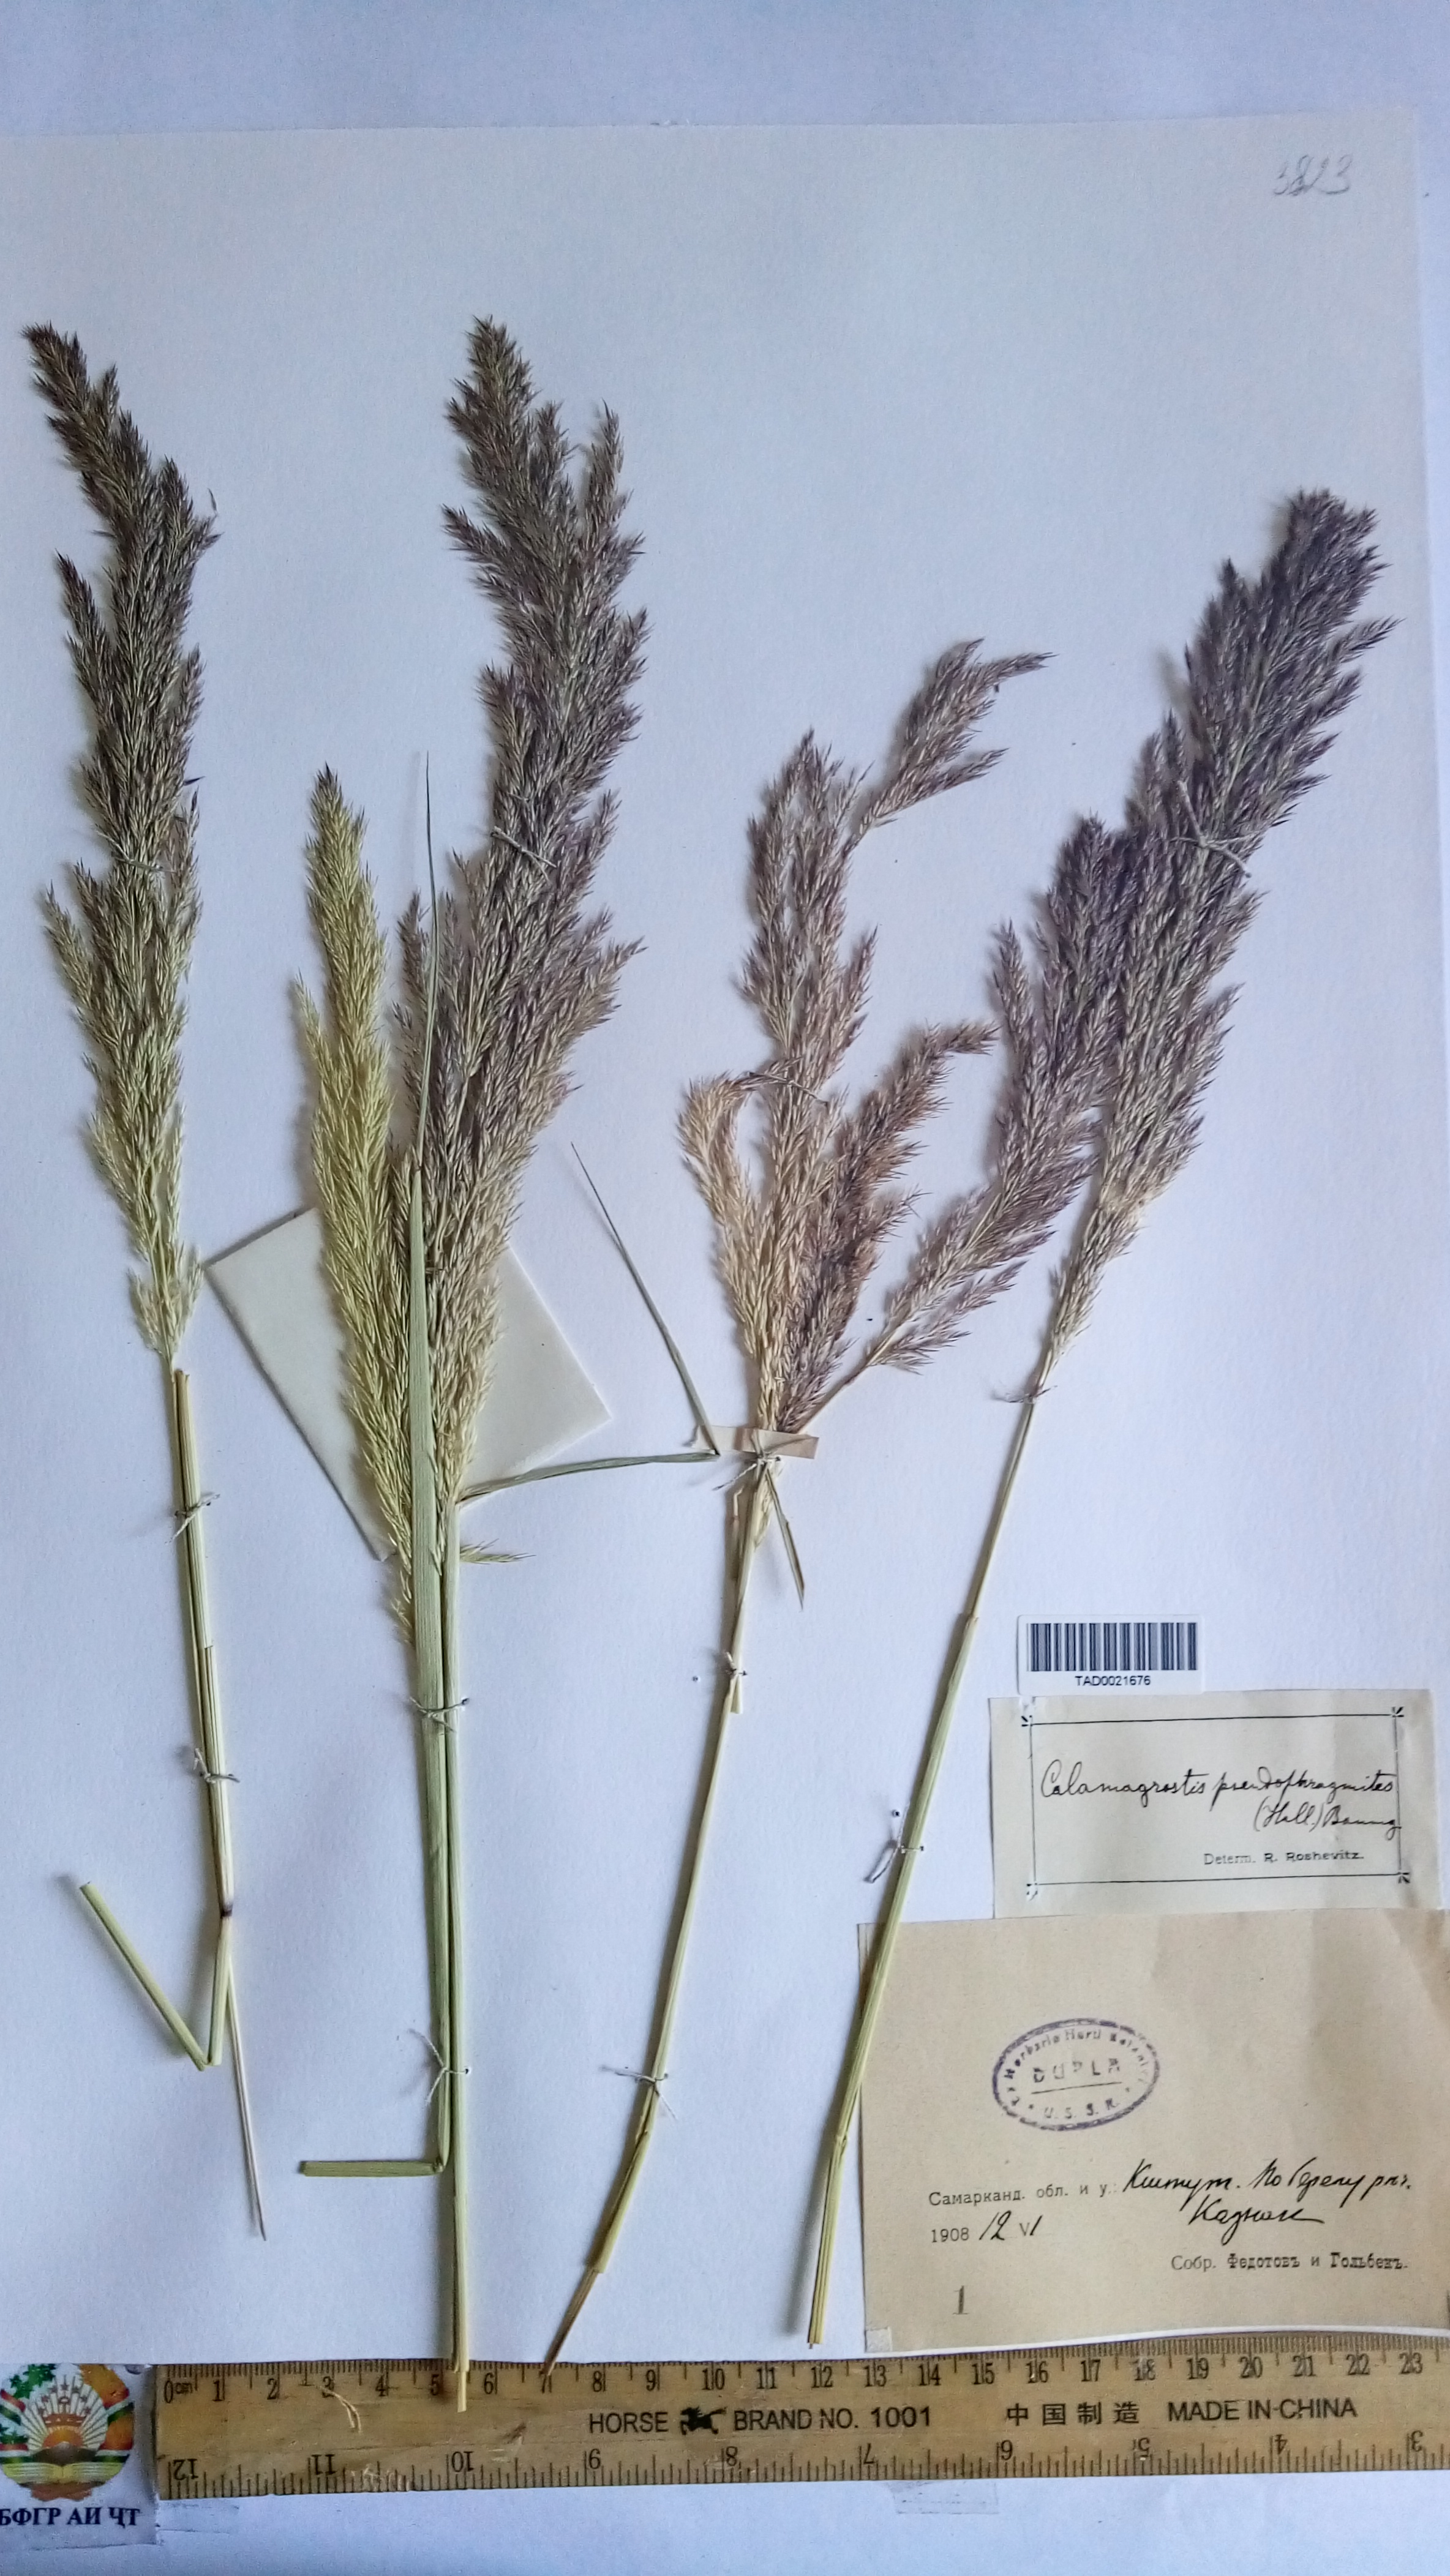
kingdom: Plantae
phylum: Tracheophyta
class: Liliopsida
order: Poales
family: Poaceae
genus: Calamagrostis
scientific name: Calamagrostis pseudophragmites
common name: Coastal small-reed
